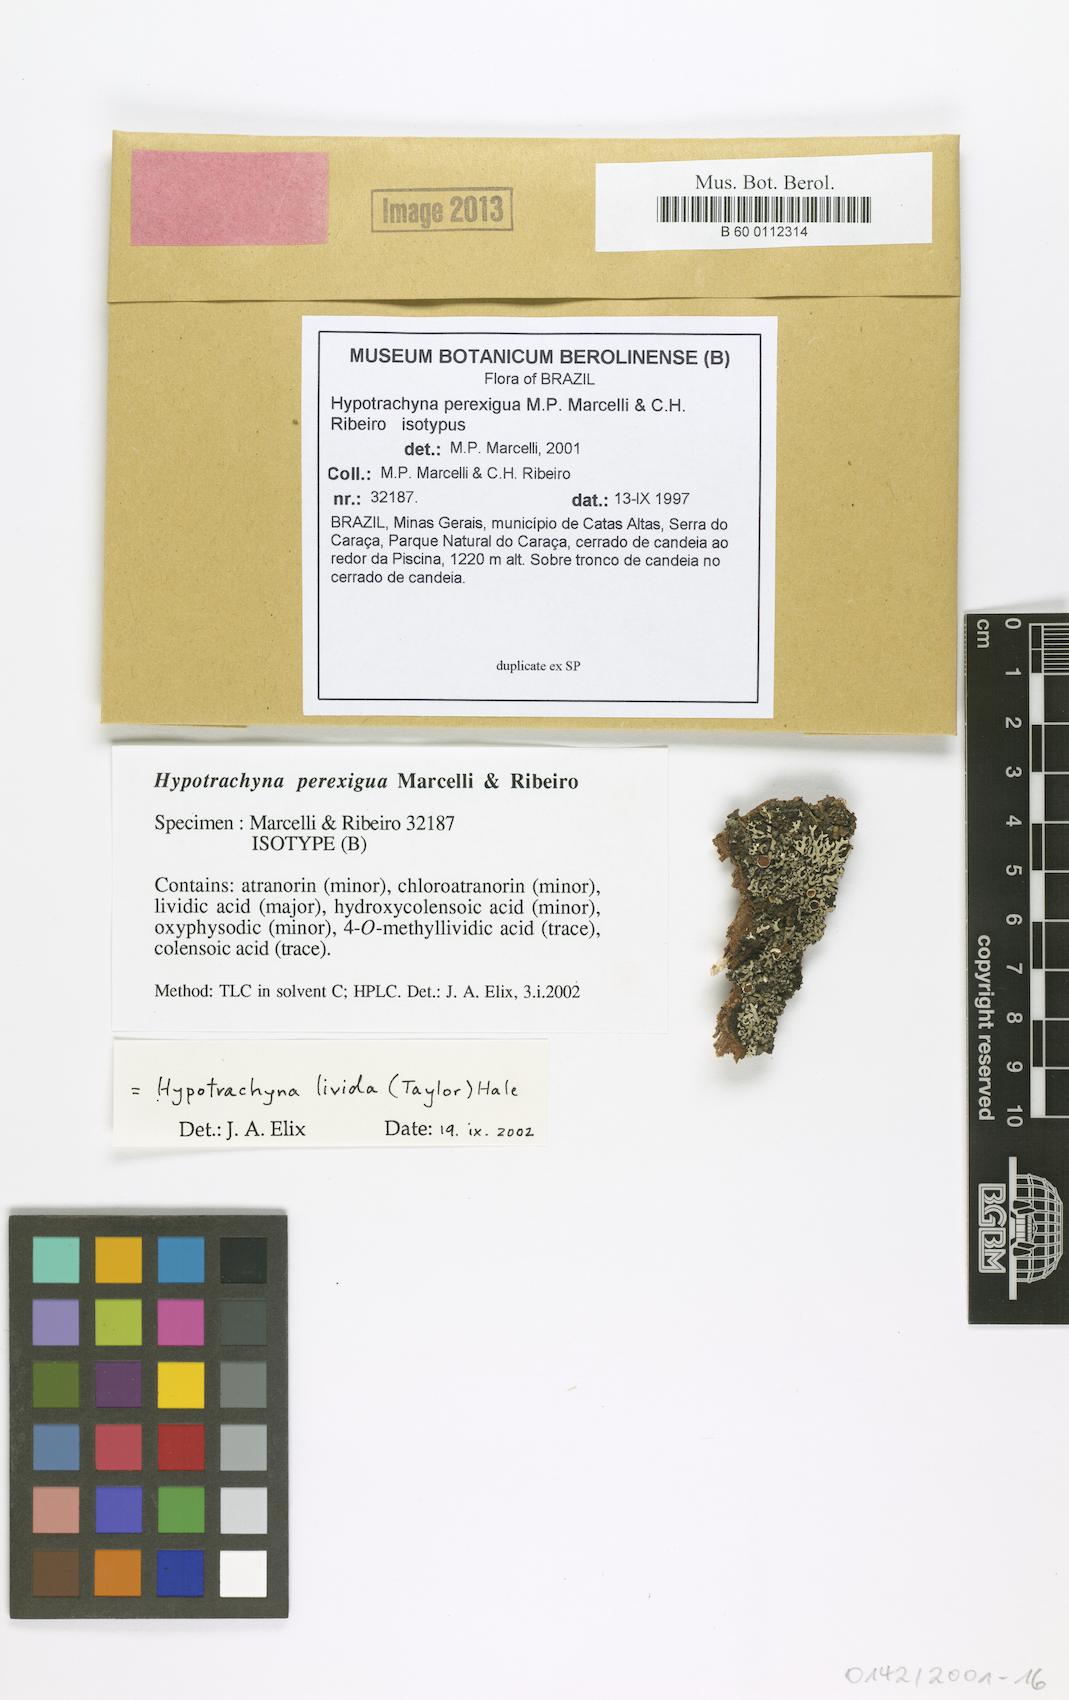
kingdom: Fungi
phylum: Ascomycota
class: Lecanoromycetes
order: Lecanorales
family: Parmeliaceae
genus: Hypotrachyna
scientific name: Hypotrachyna perexigua
